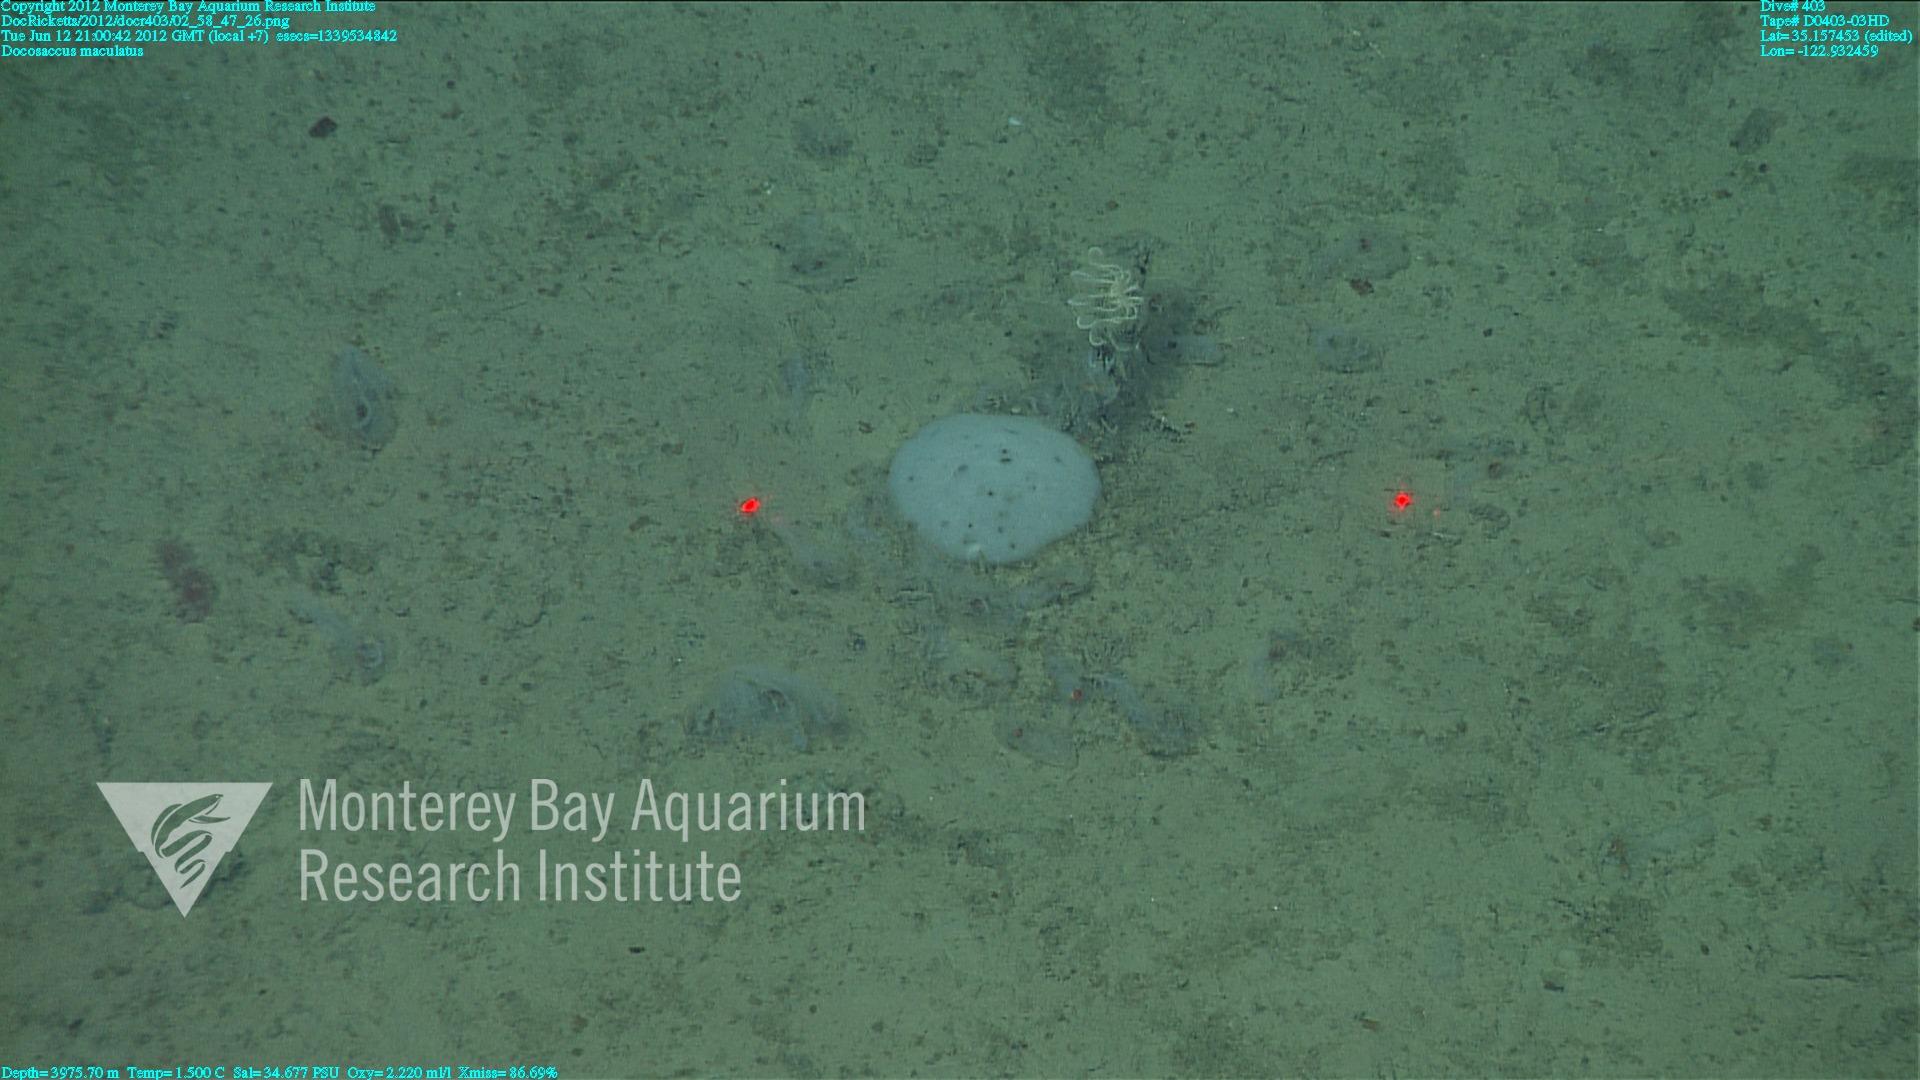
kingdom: Animalia
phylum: Porifera
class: Hexactinellida
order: Lyssacinosida
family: Euplectellidae
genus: Docosaccus
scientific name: Docosaccus maculatus
